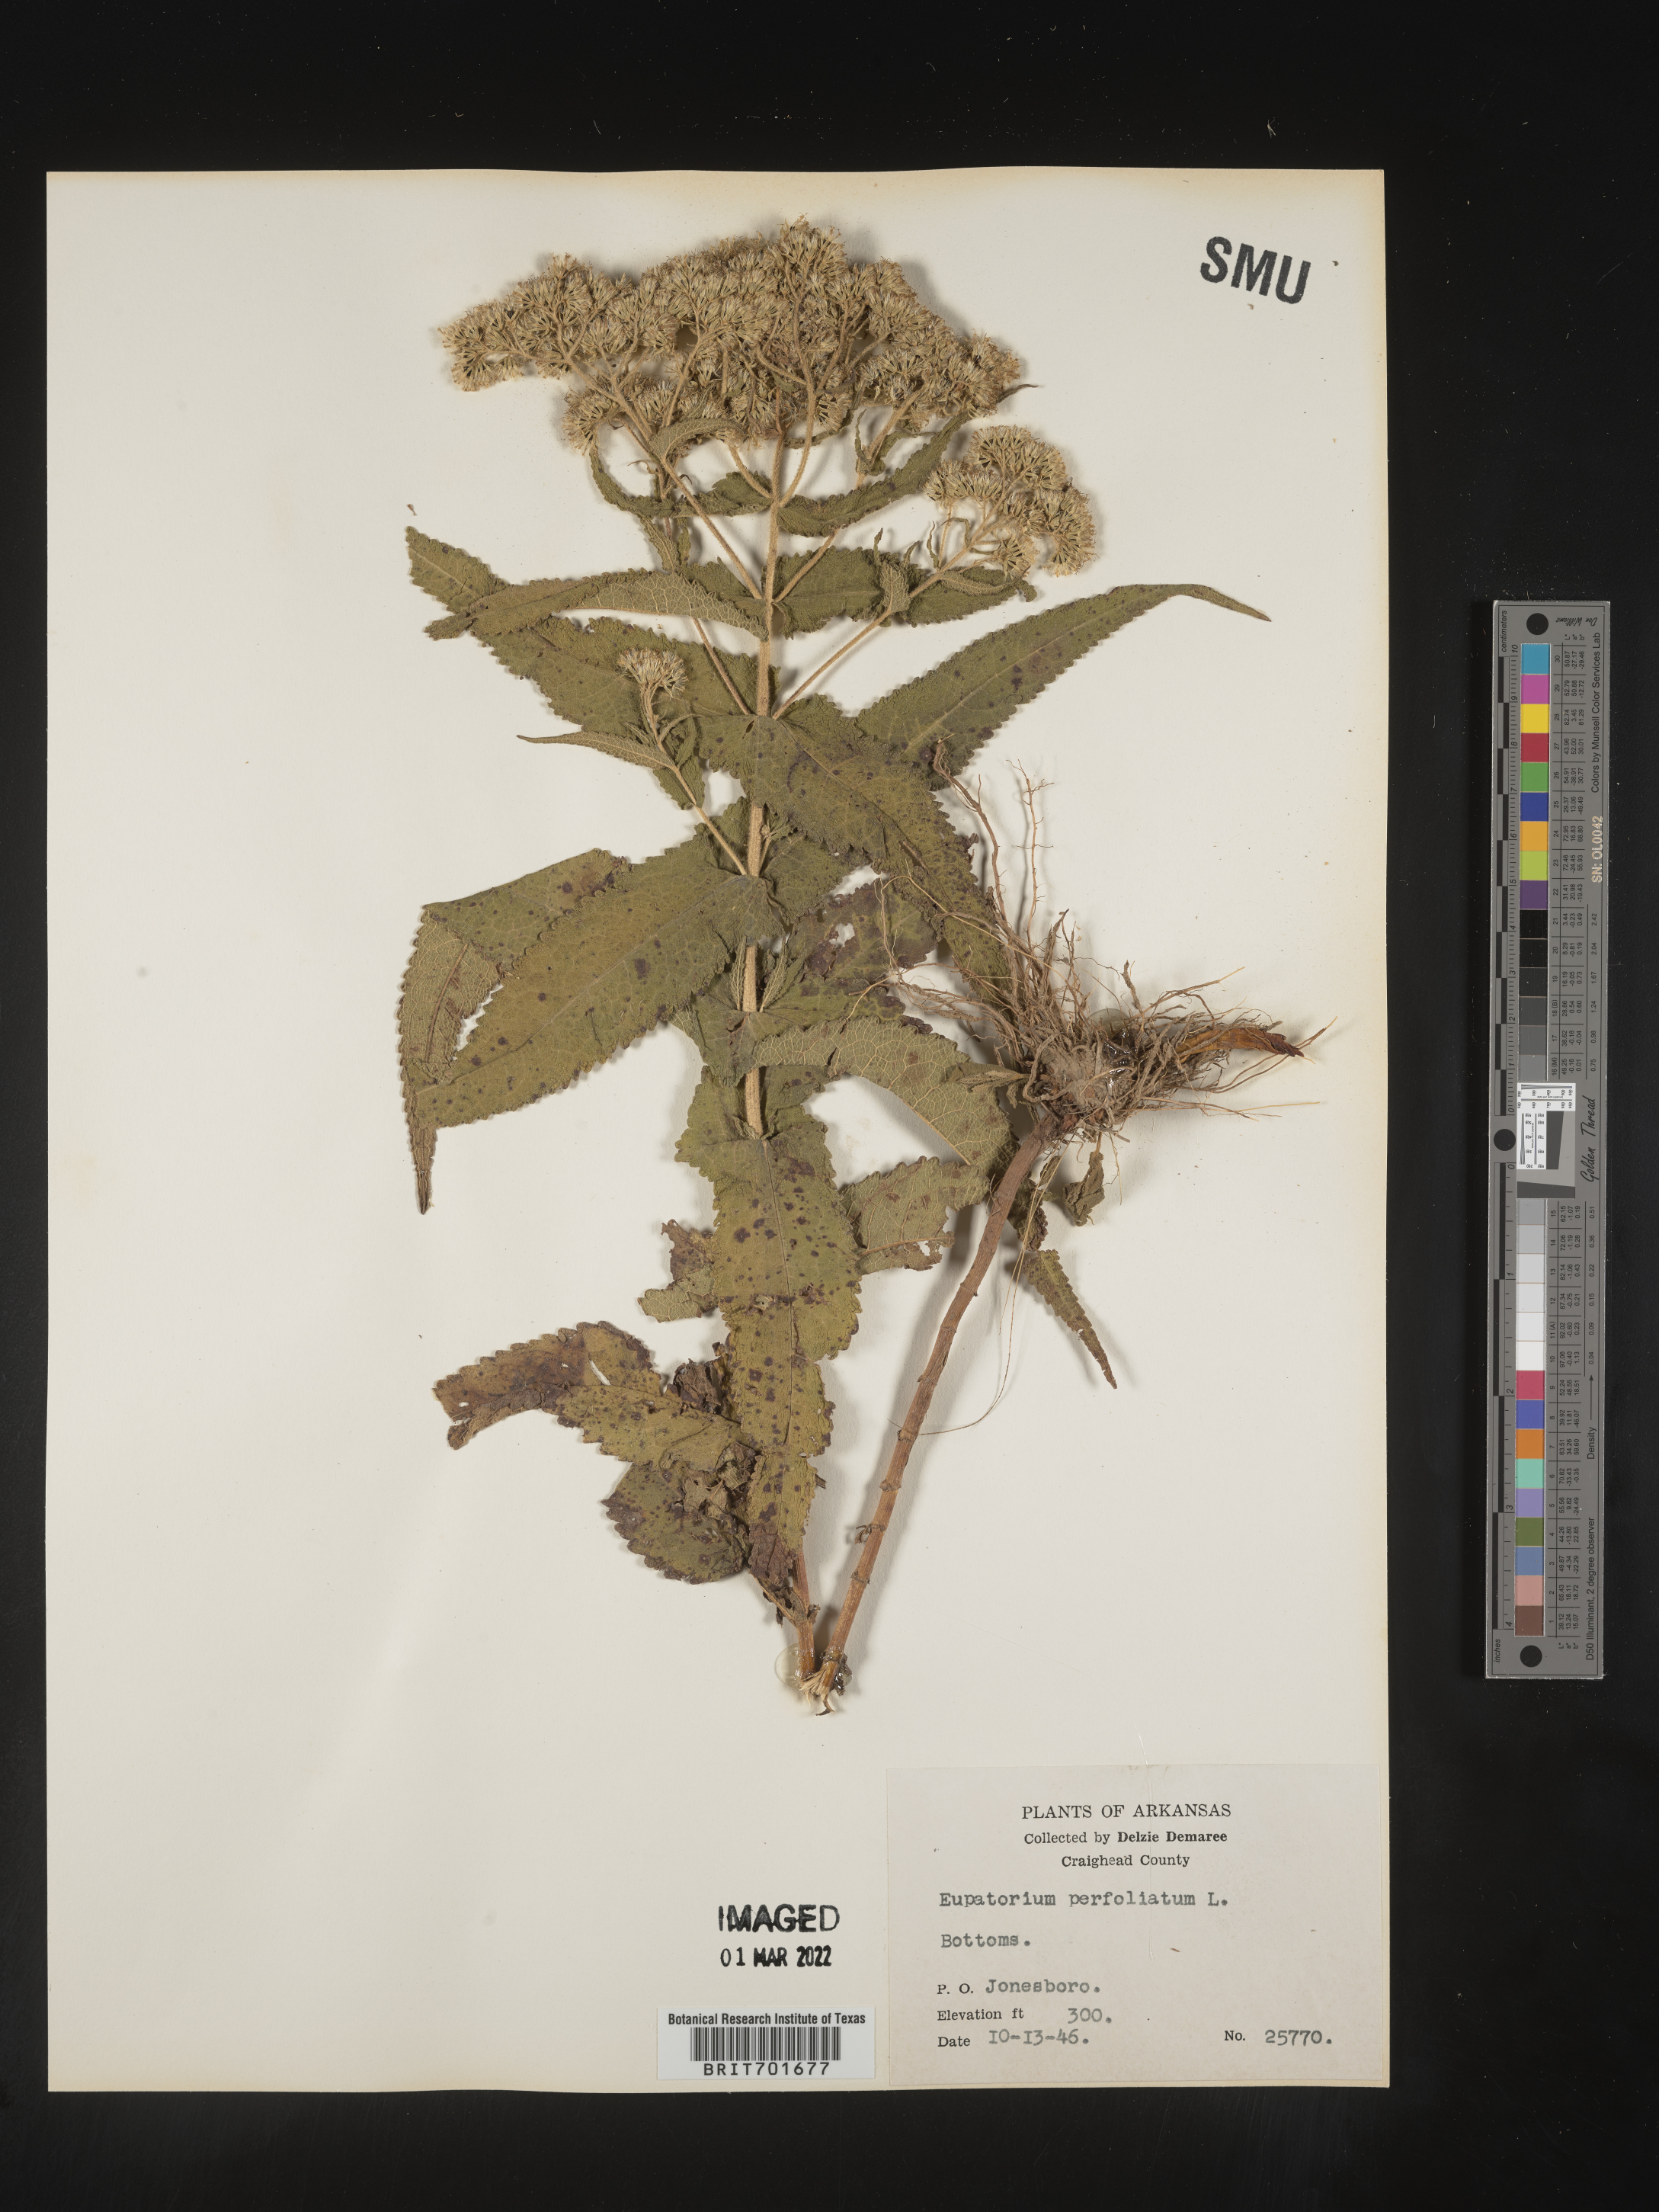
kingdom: Plantae
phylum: Tracheophyta
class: Magnoliopsida
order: Asterales
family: Asteraceae
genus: Eupatorium
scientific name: Eupatorium perfoliatum
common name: Boneset
